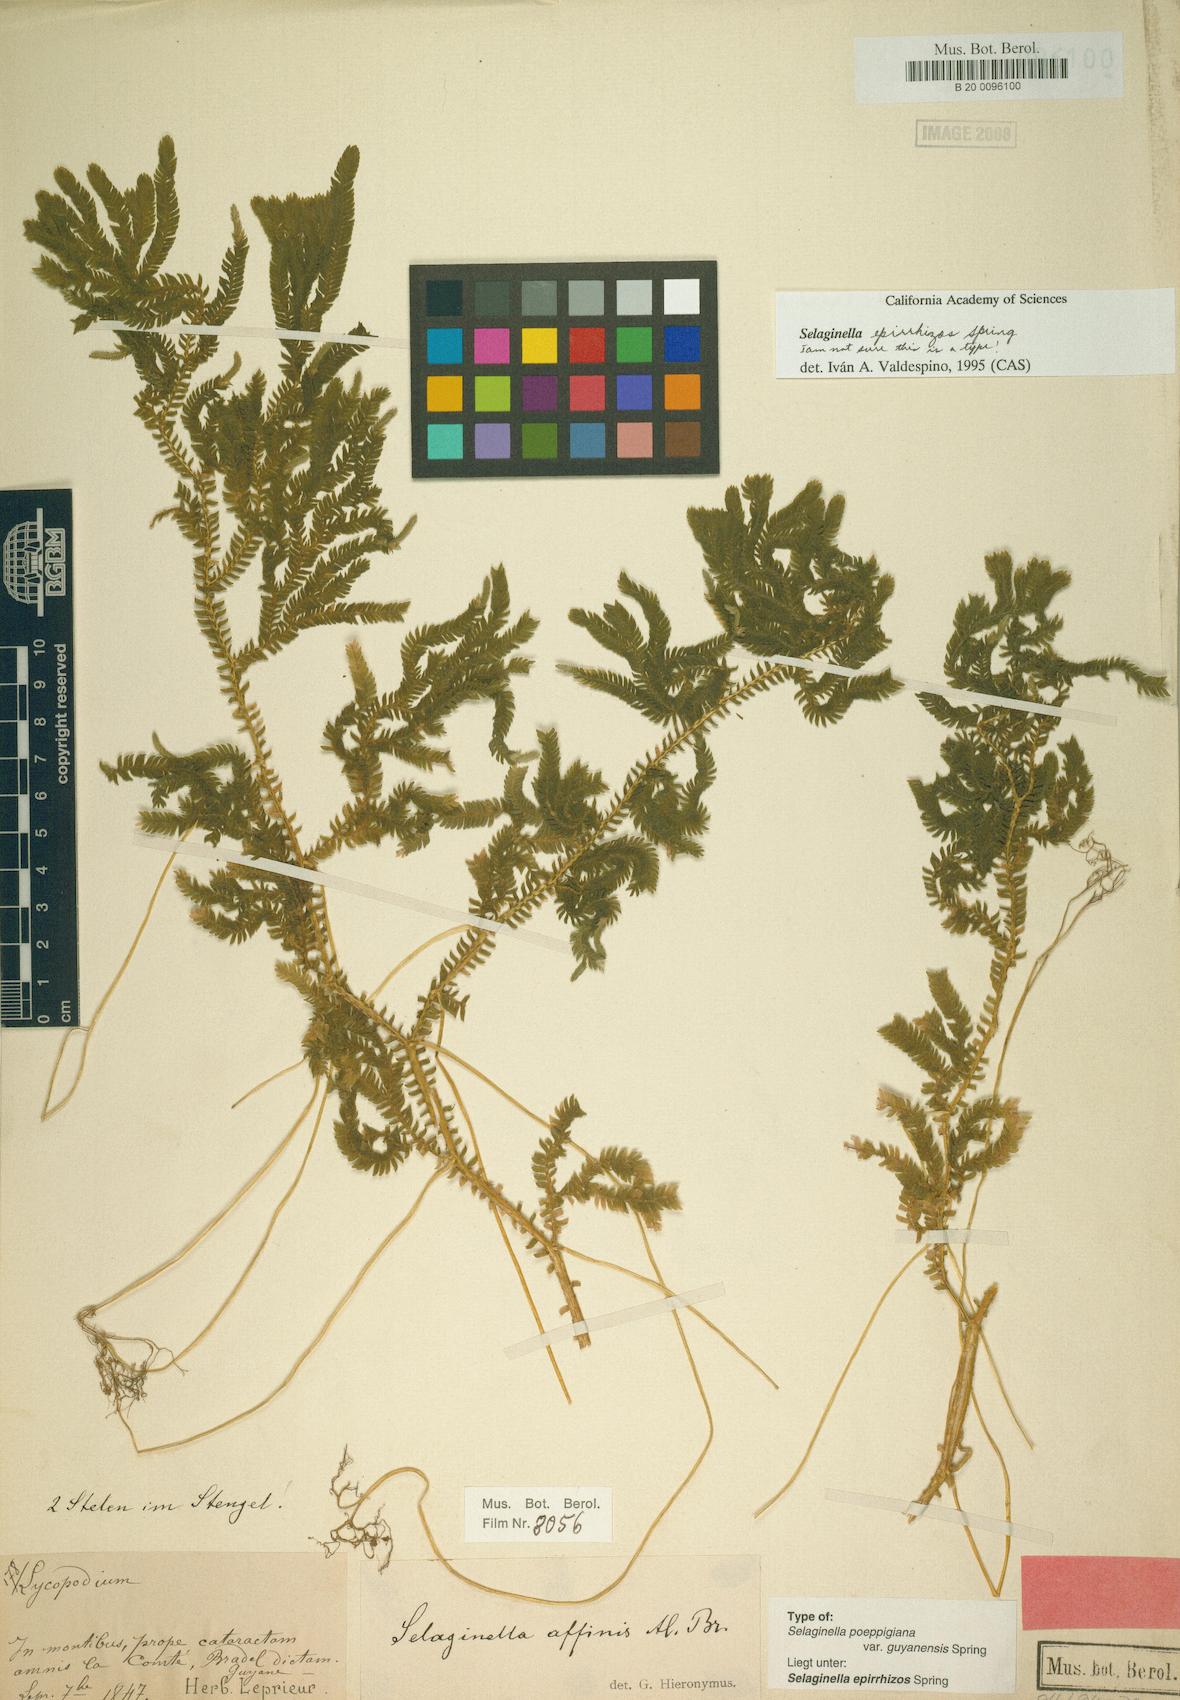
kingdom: Plantae
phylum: Tracheophyta
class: Lycopodiopsida
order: Selaginellales
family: Selaginellaceae
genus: Selaginella
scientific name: Selaginella epirrhizos
